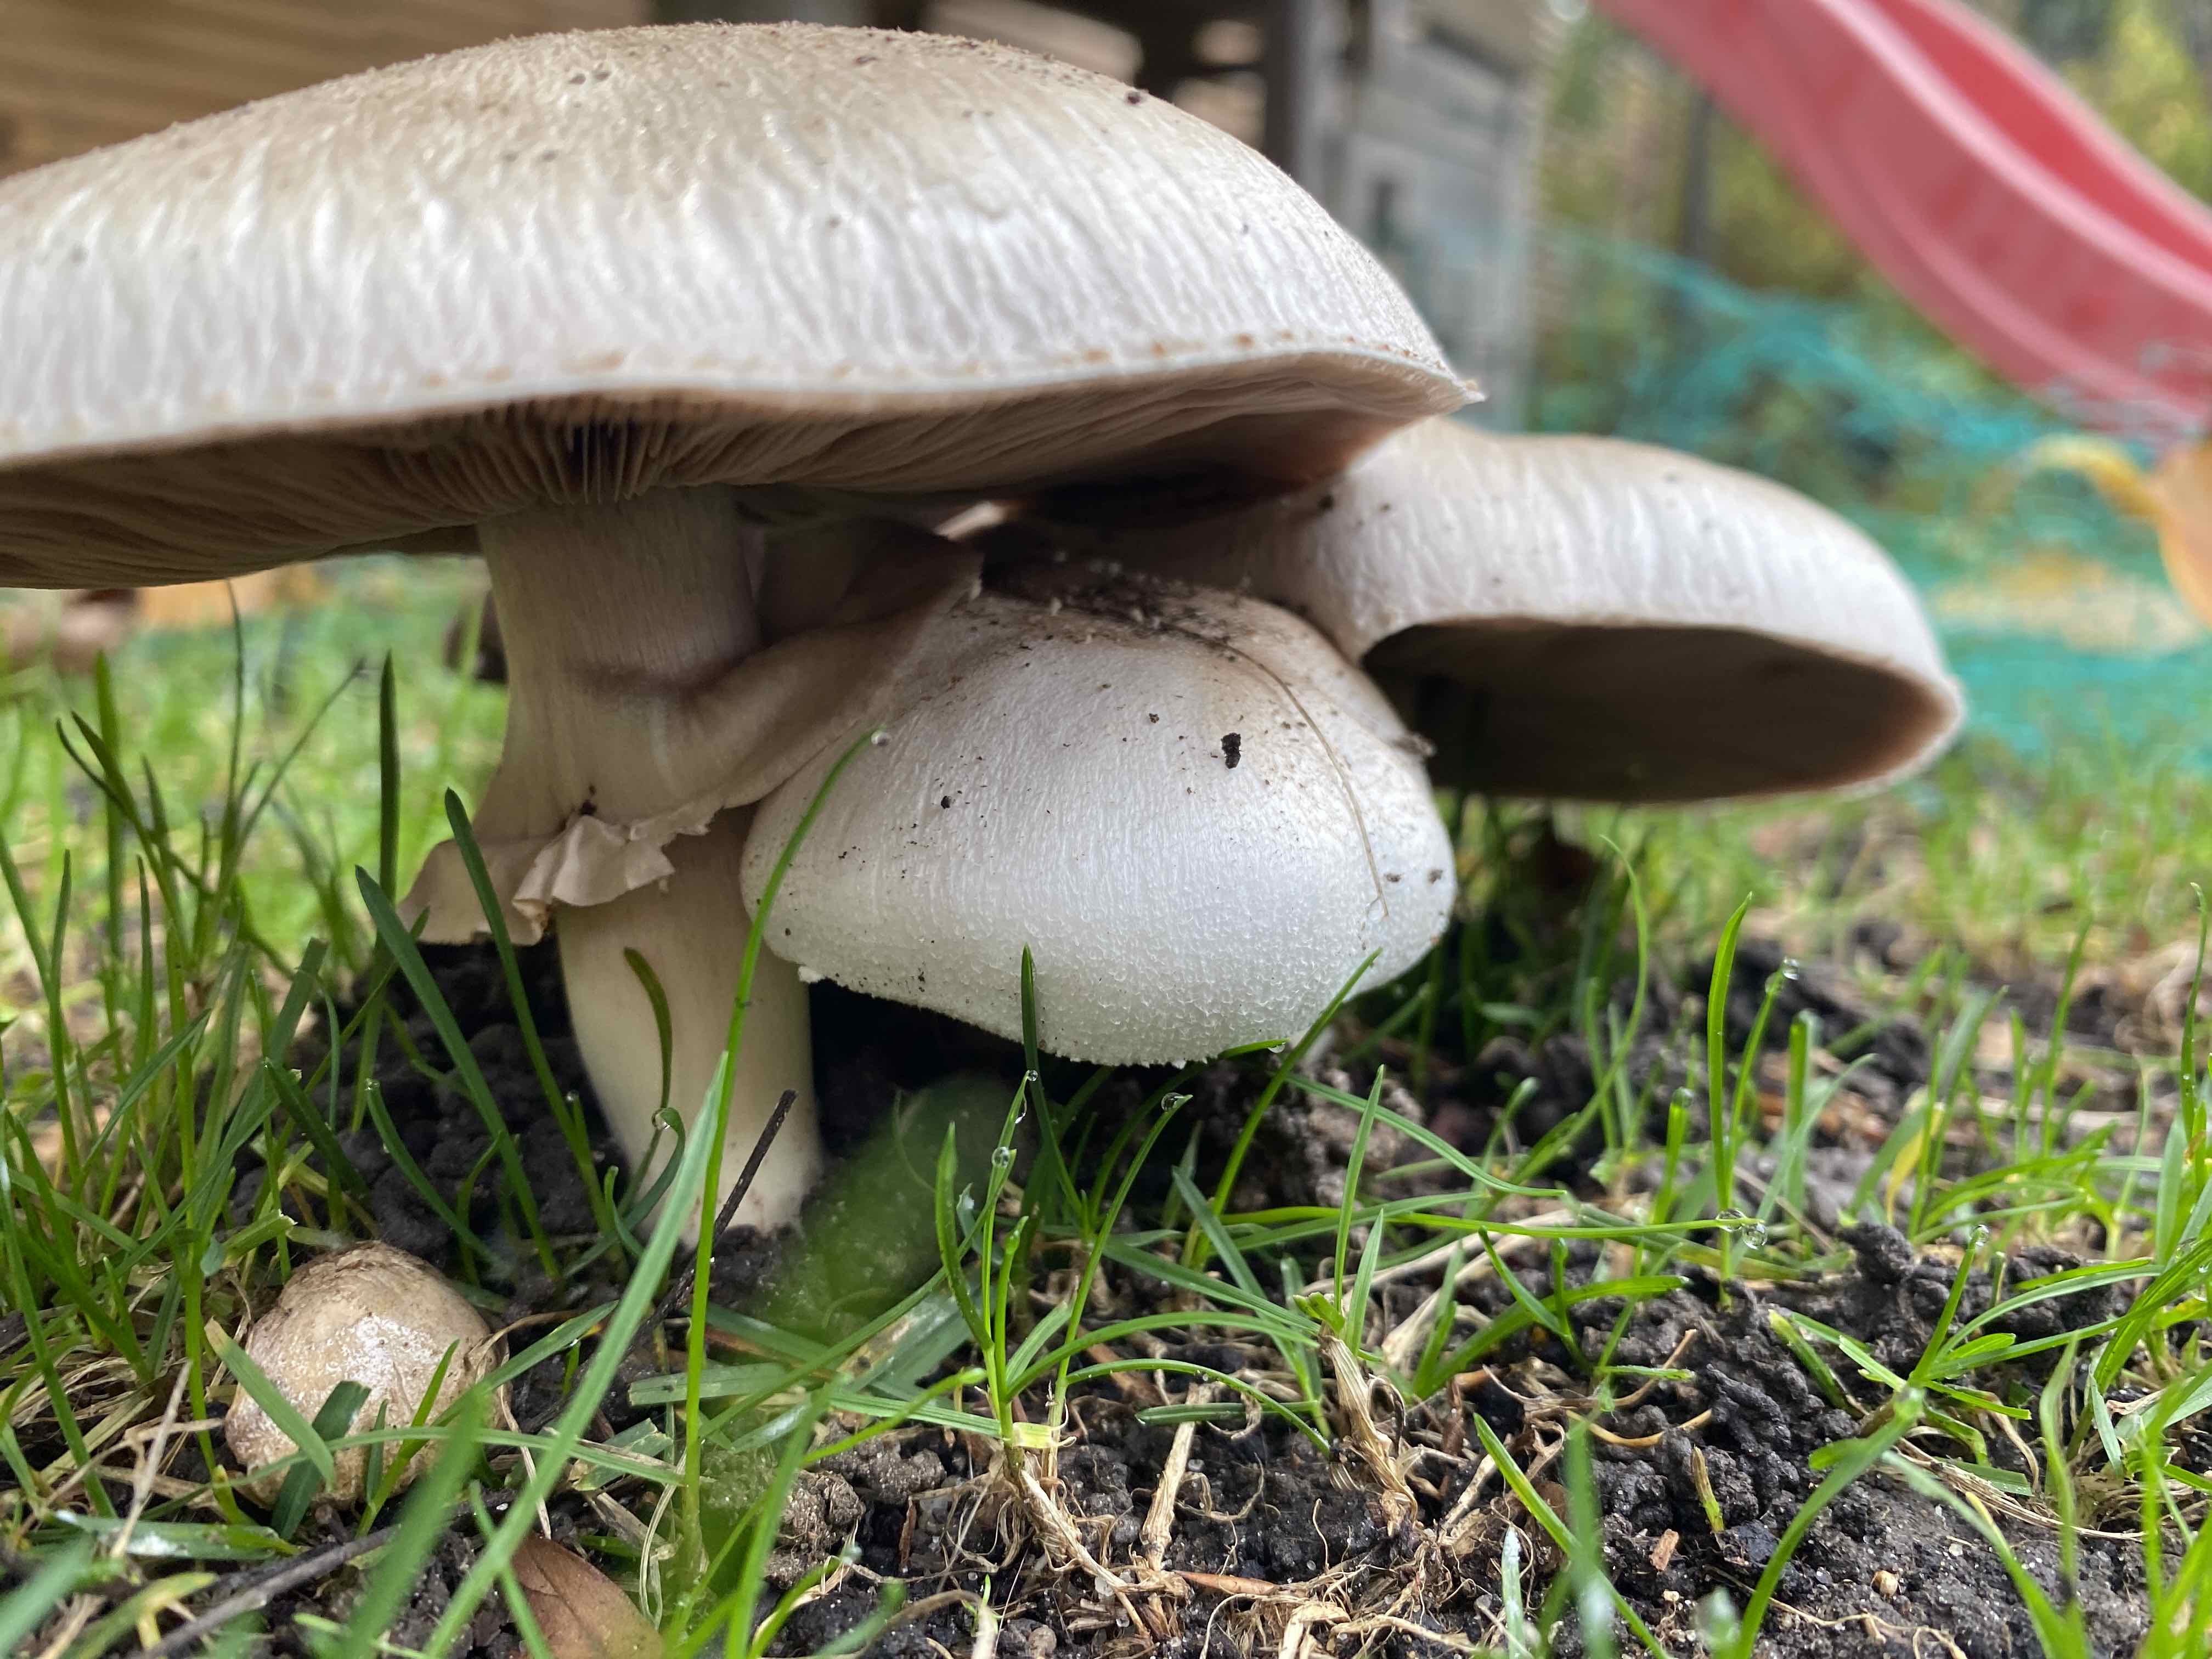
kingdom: Fungi
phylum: Basidiomycota
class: Agaricomycetes
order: Agaricales
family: Agaricaceae
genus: Agaricus
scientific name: Agaricus
